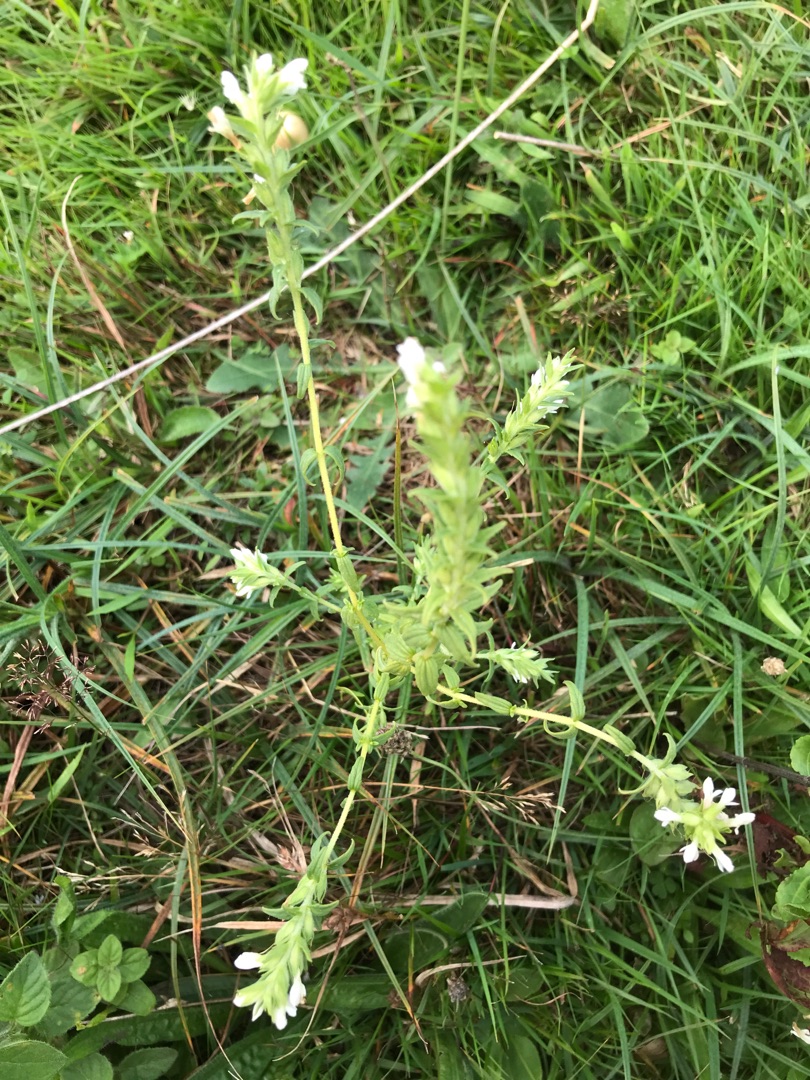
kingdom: Plantae
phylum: Tracheophyta
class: Magnoliopsida
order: Lamiales
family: Orobanchaceae
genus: Odontites
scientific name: Odontites vulgaris
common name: Høst-rødtop
